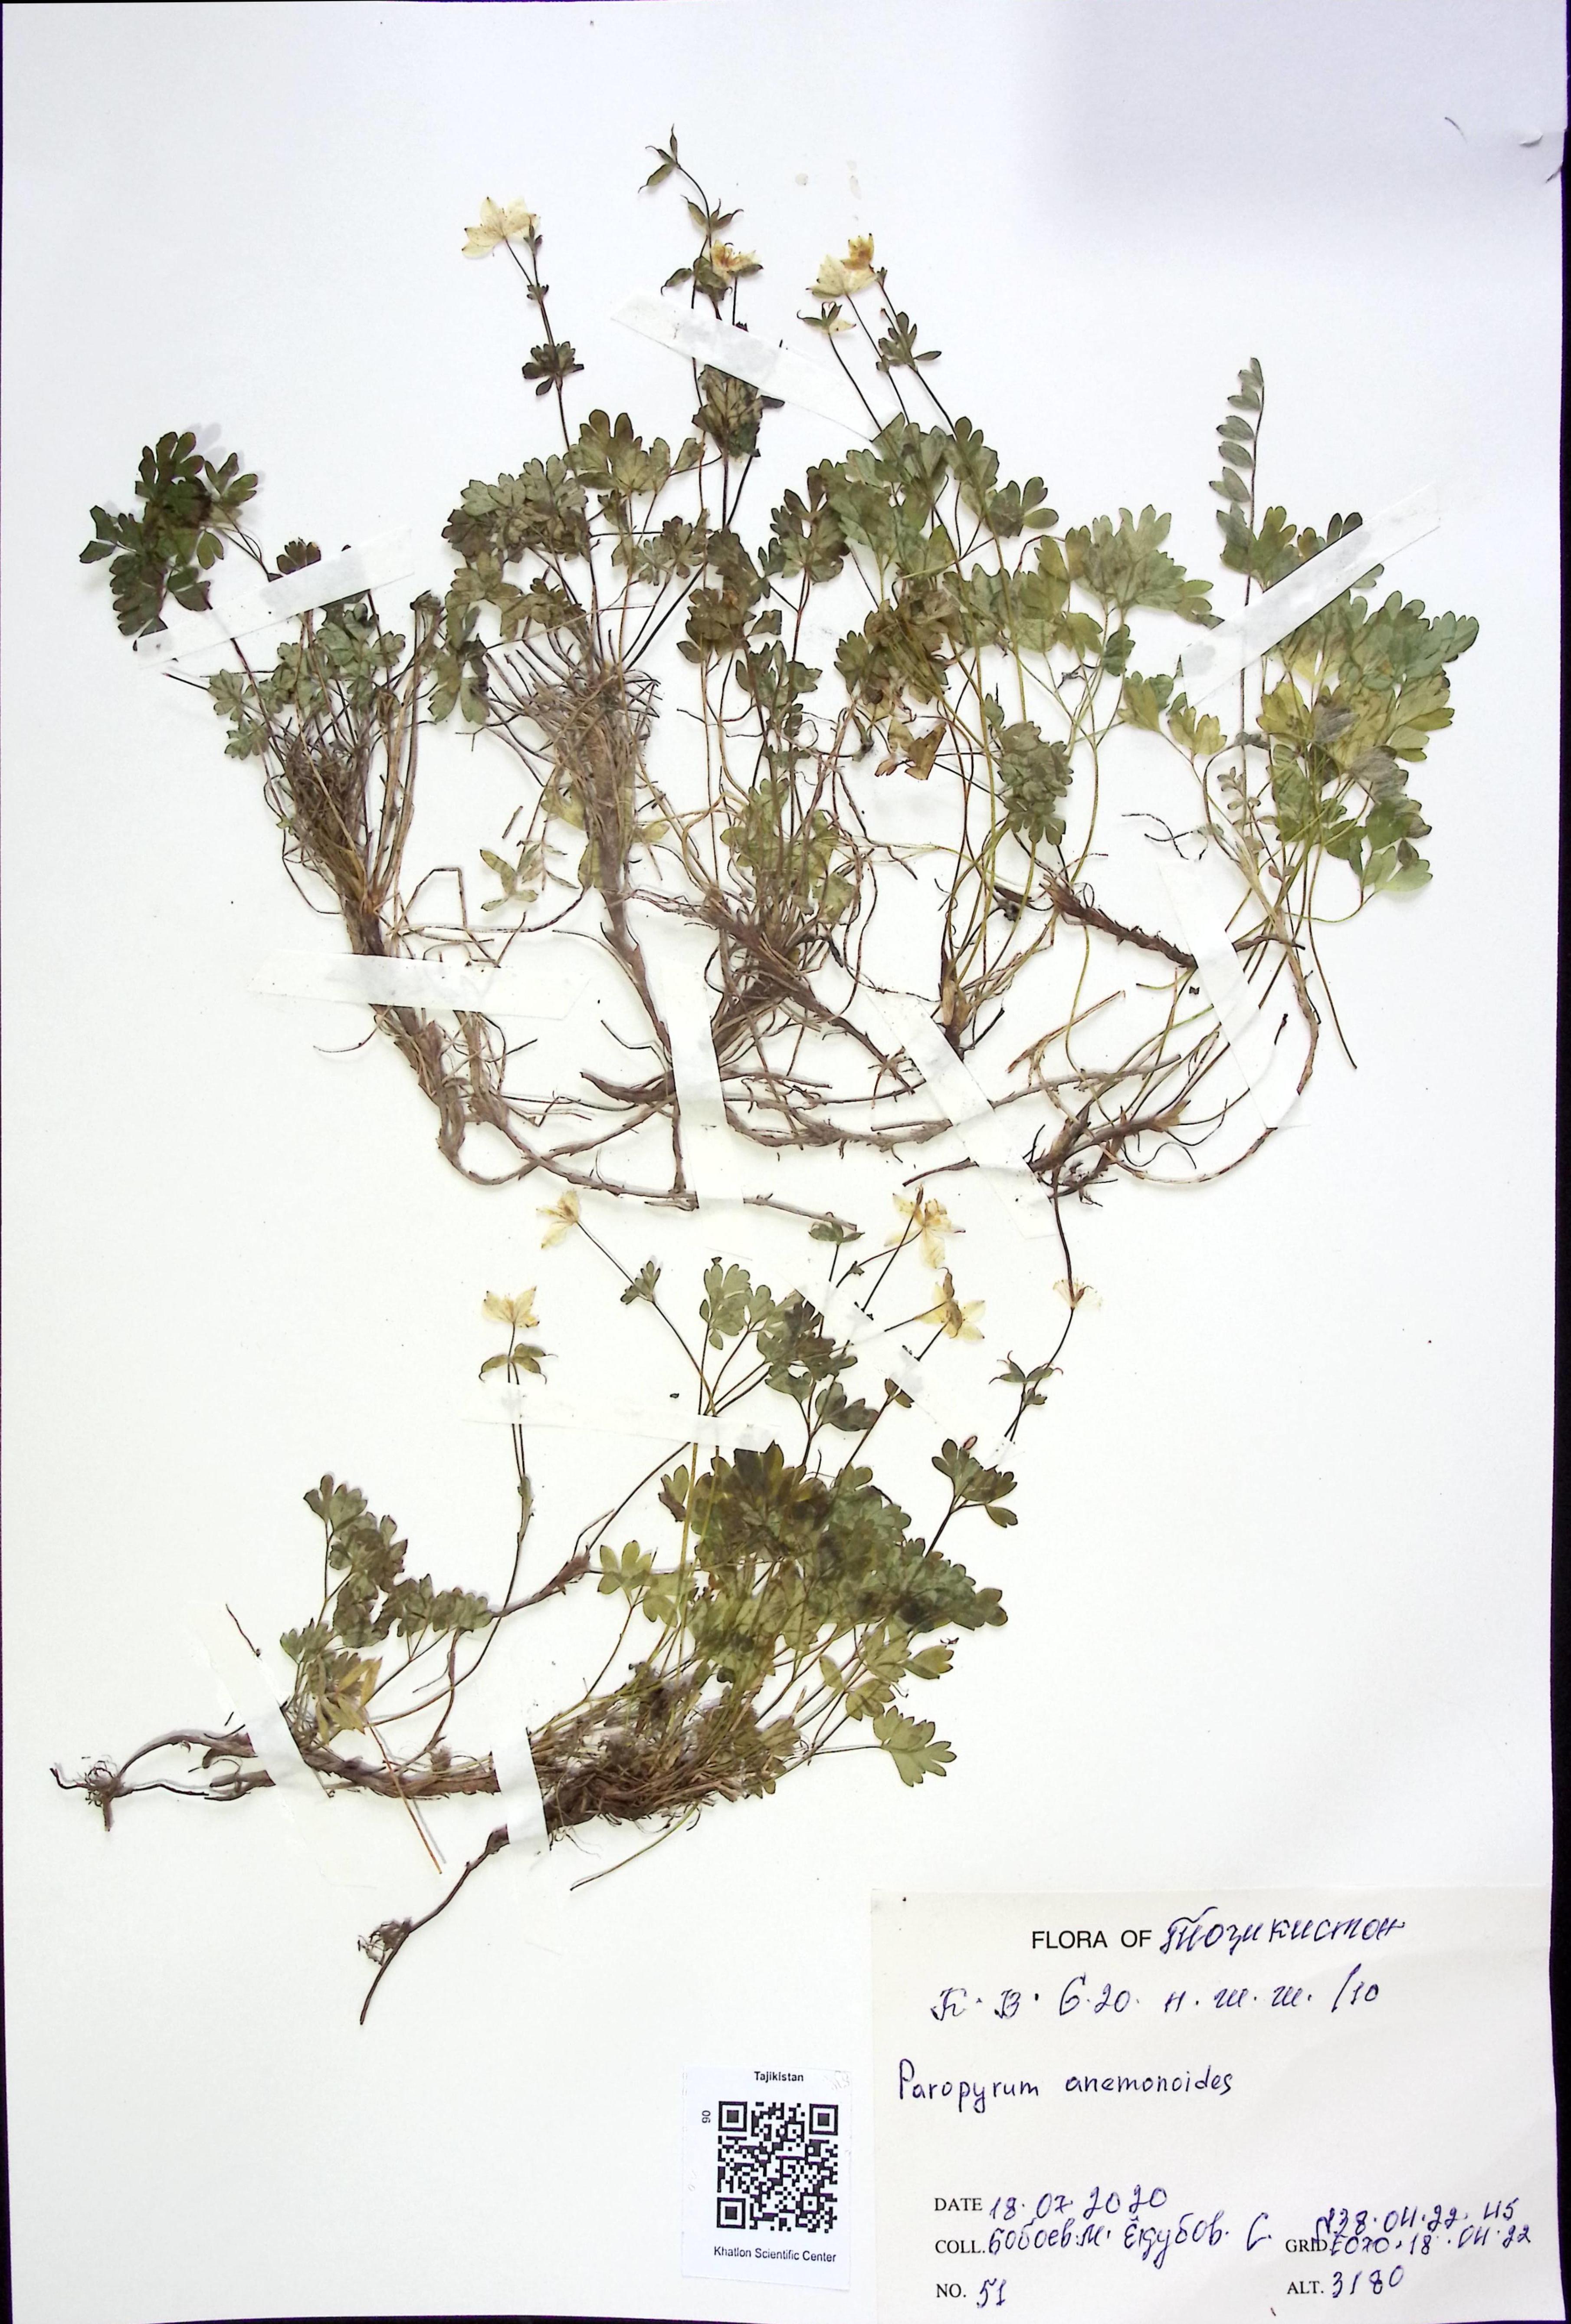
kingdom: Plantae
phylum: Tracheophyta
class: Magnoliopsida
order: Ranunculales
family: Ranunculaceae
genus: Isopyrum
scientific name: Isopyrum anemonoides
